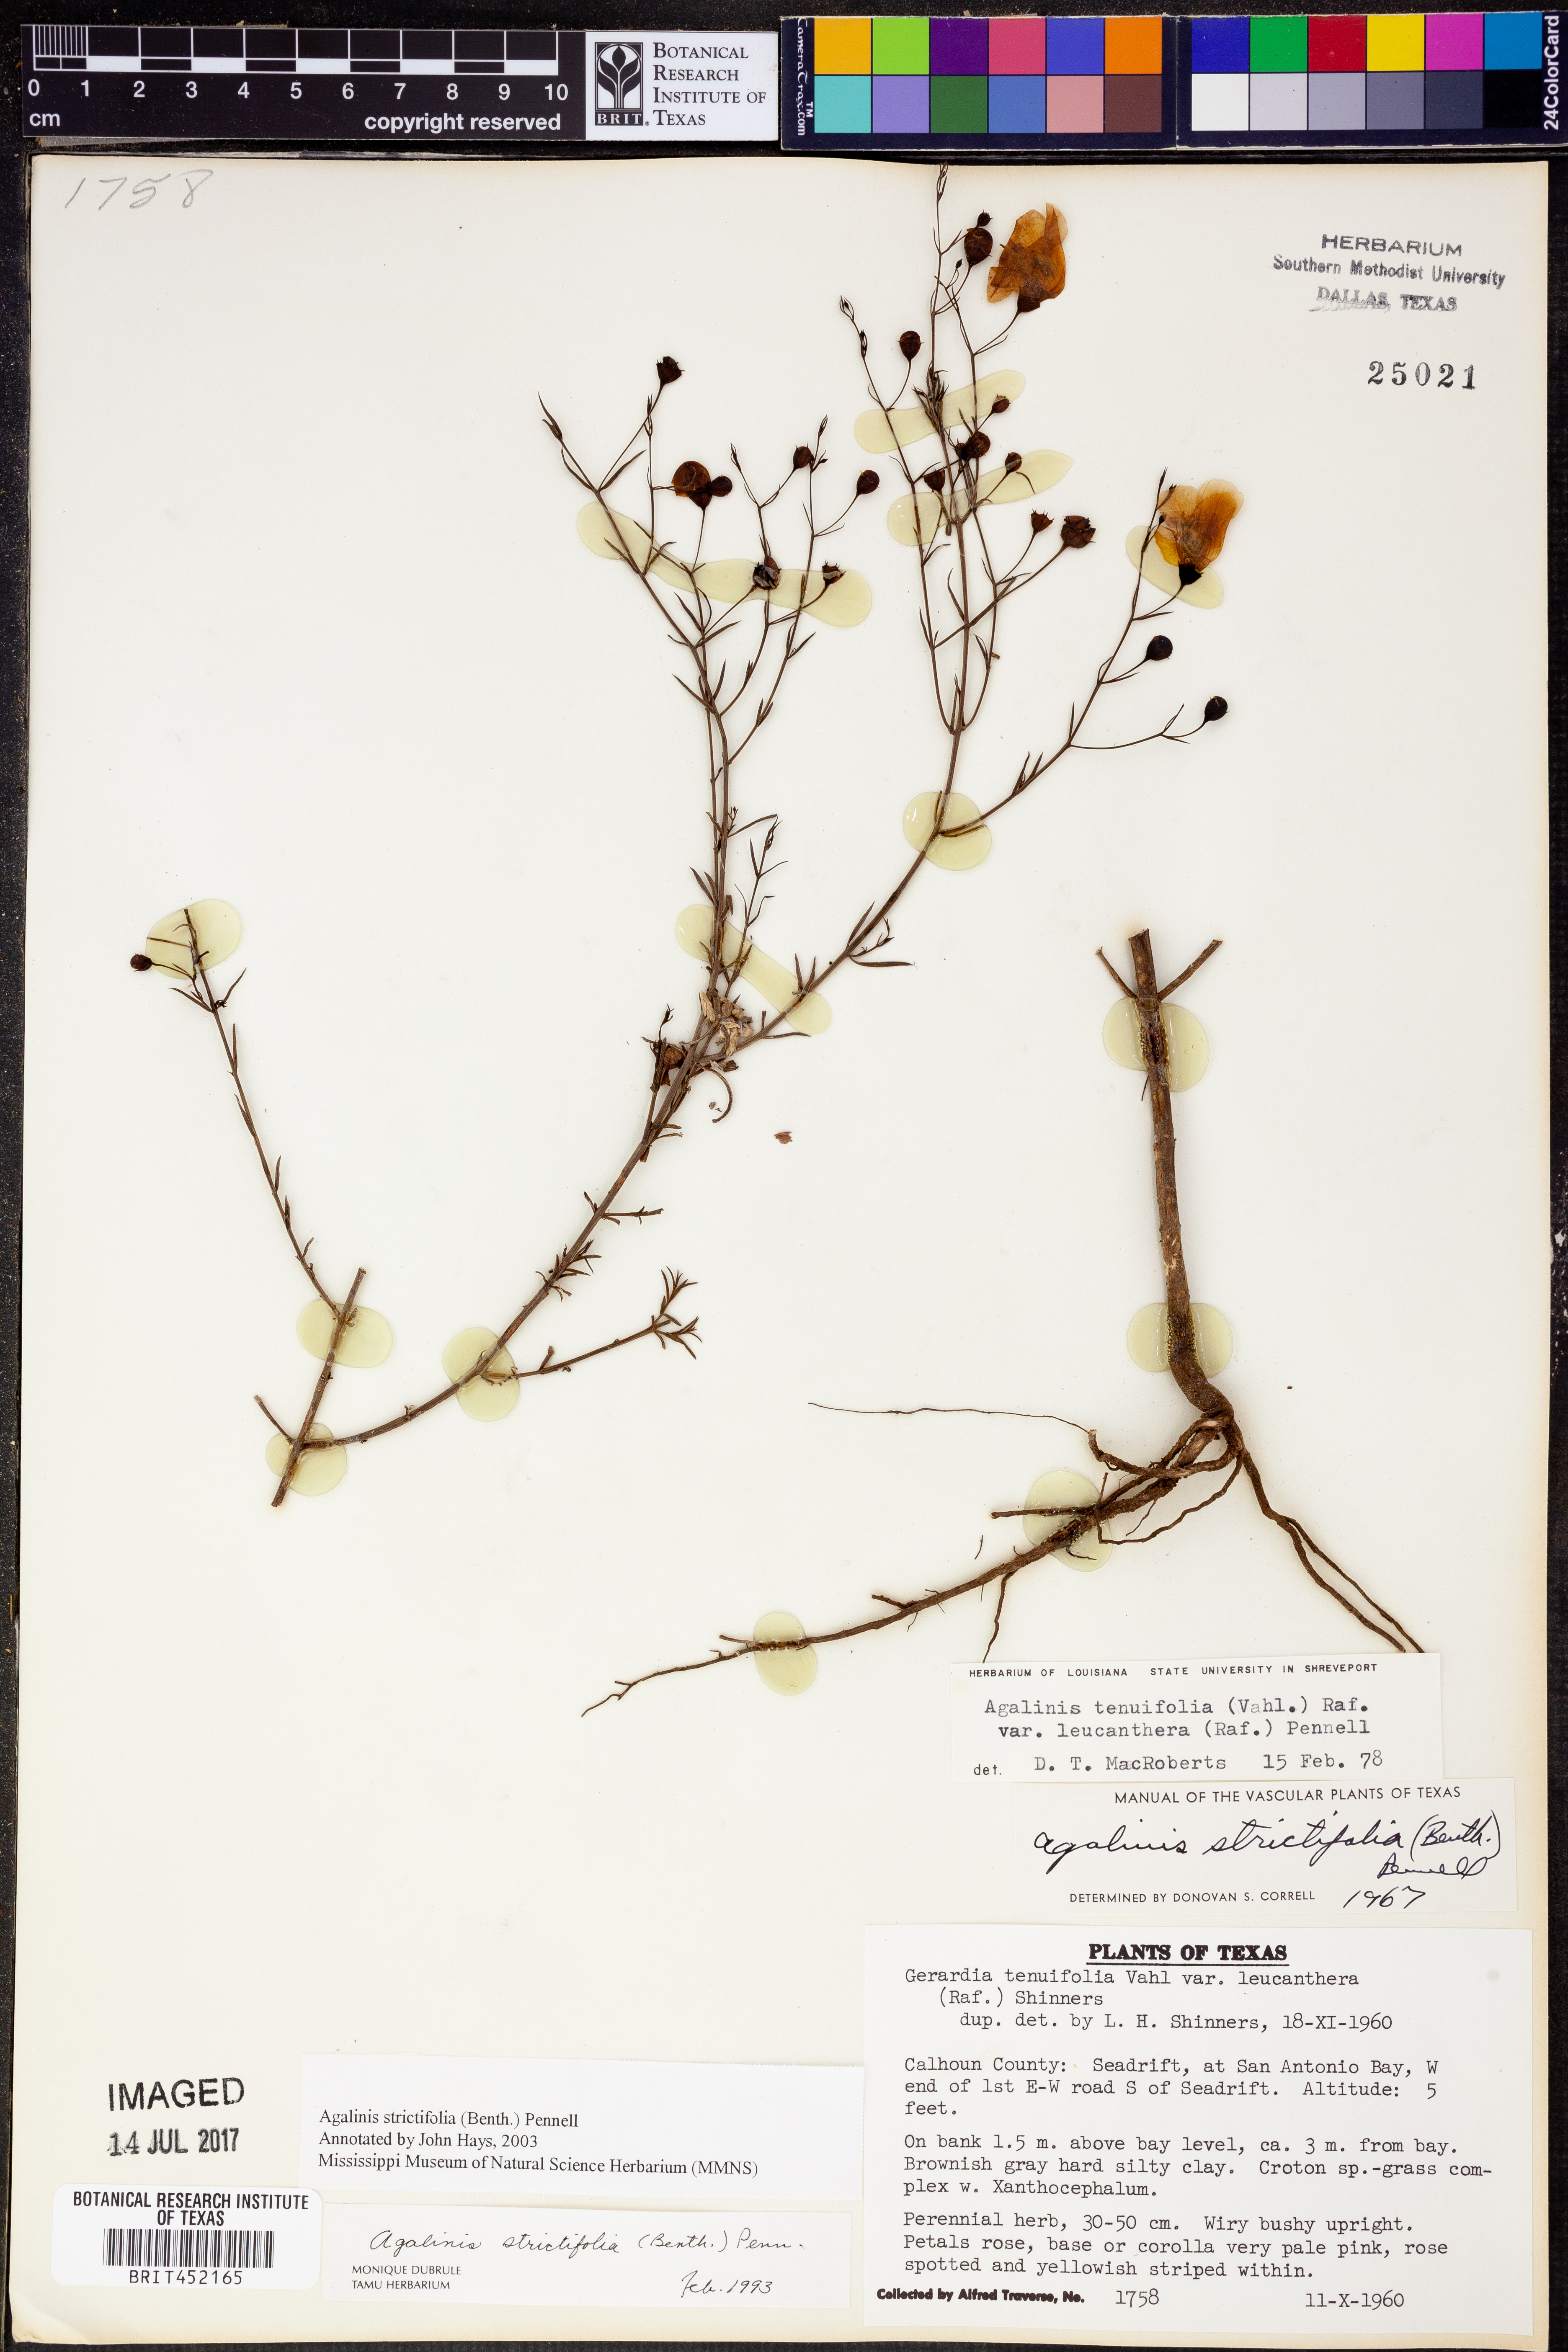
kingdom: Plantae
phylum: Tracheophyta
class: Magnoliopsida
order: Lamiales
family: Orobanchaceae
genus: Agalinis
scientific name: Agalinis strictifolia
